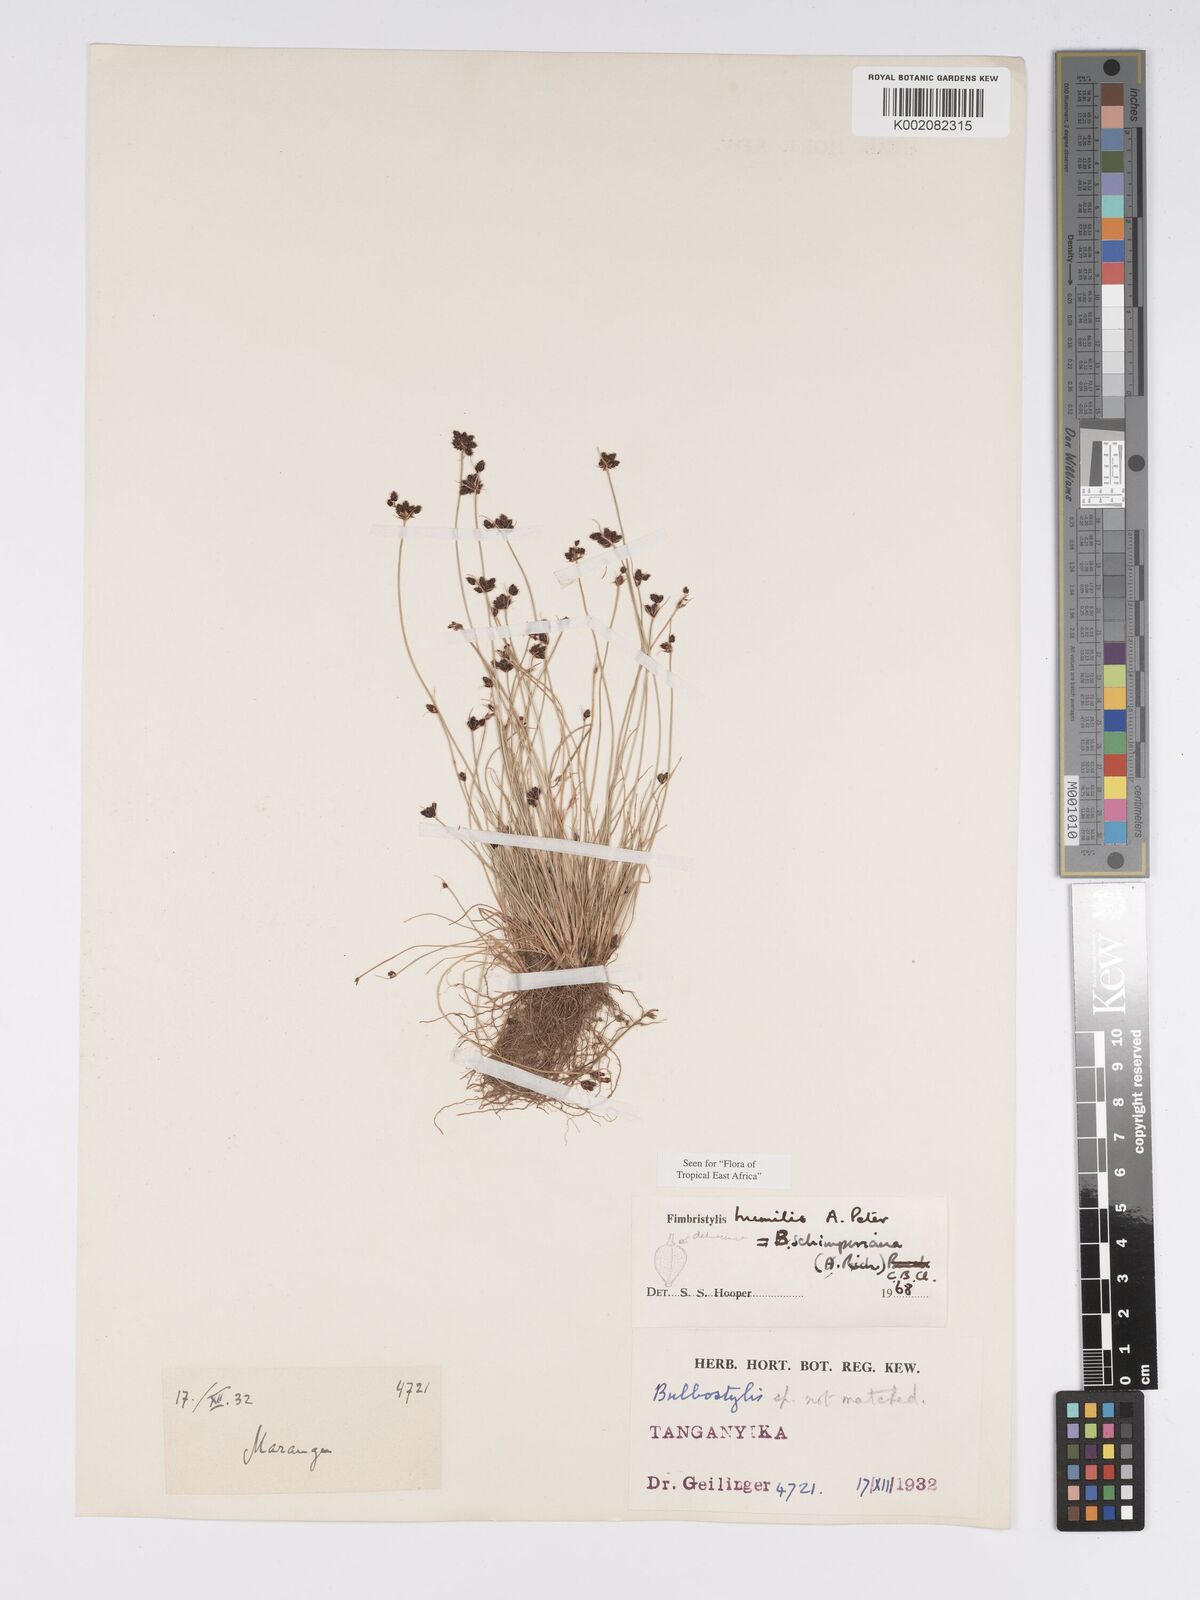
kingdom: Plantae
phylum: Tracheophyta
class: Liliopsida
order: Poales
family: Cyperaceae
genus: Bulbostylis
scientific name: Bulbostylis schimperiana
